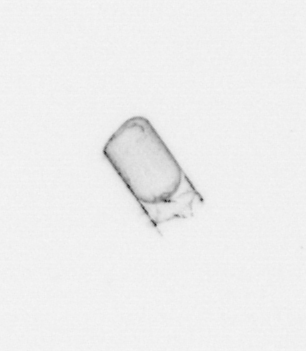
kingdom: Chromista
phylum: Ochrophyta
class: Bacillariophyceae
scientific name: Bacillariophyceae
